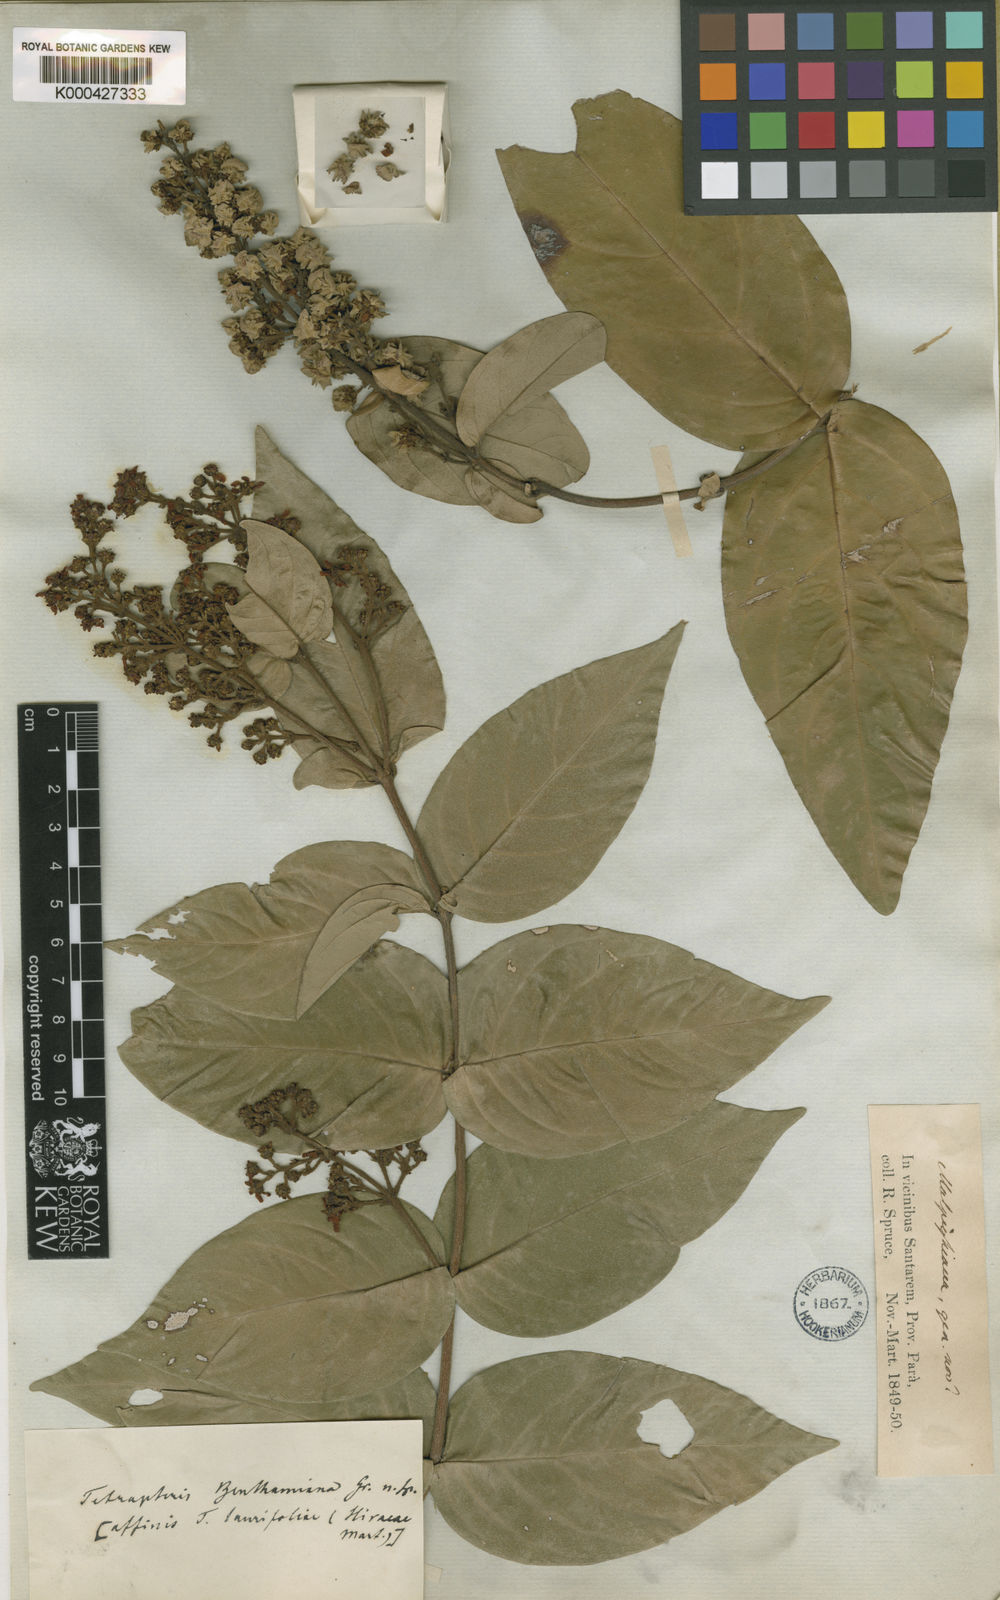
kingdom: Plantae
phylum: Tracheophyta
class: Magnoliopsida
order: Malpighiales
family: Malpighiaceae
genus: Niedenzuella
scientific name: Niedenzuella stannea
